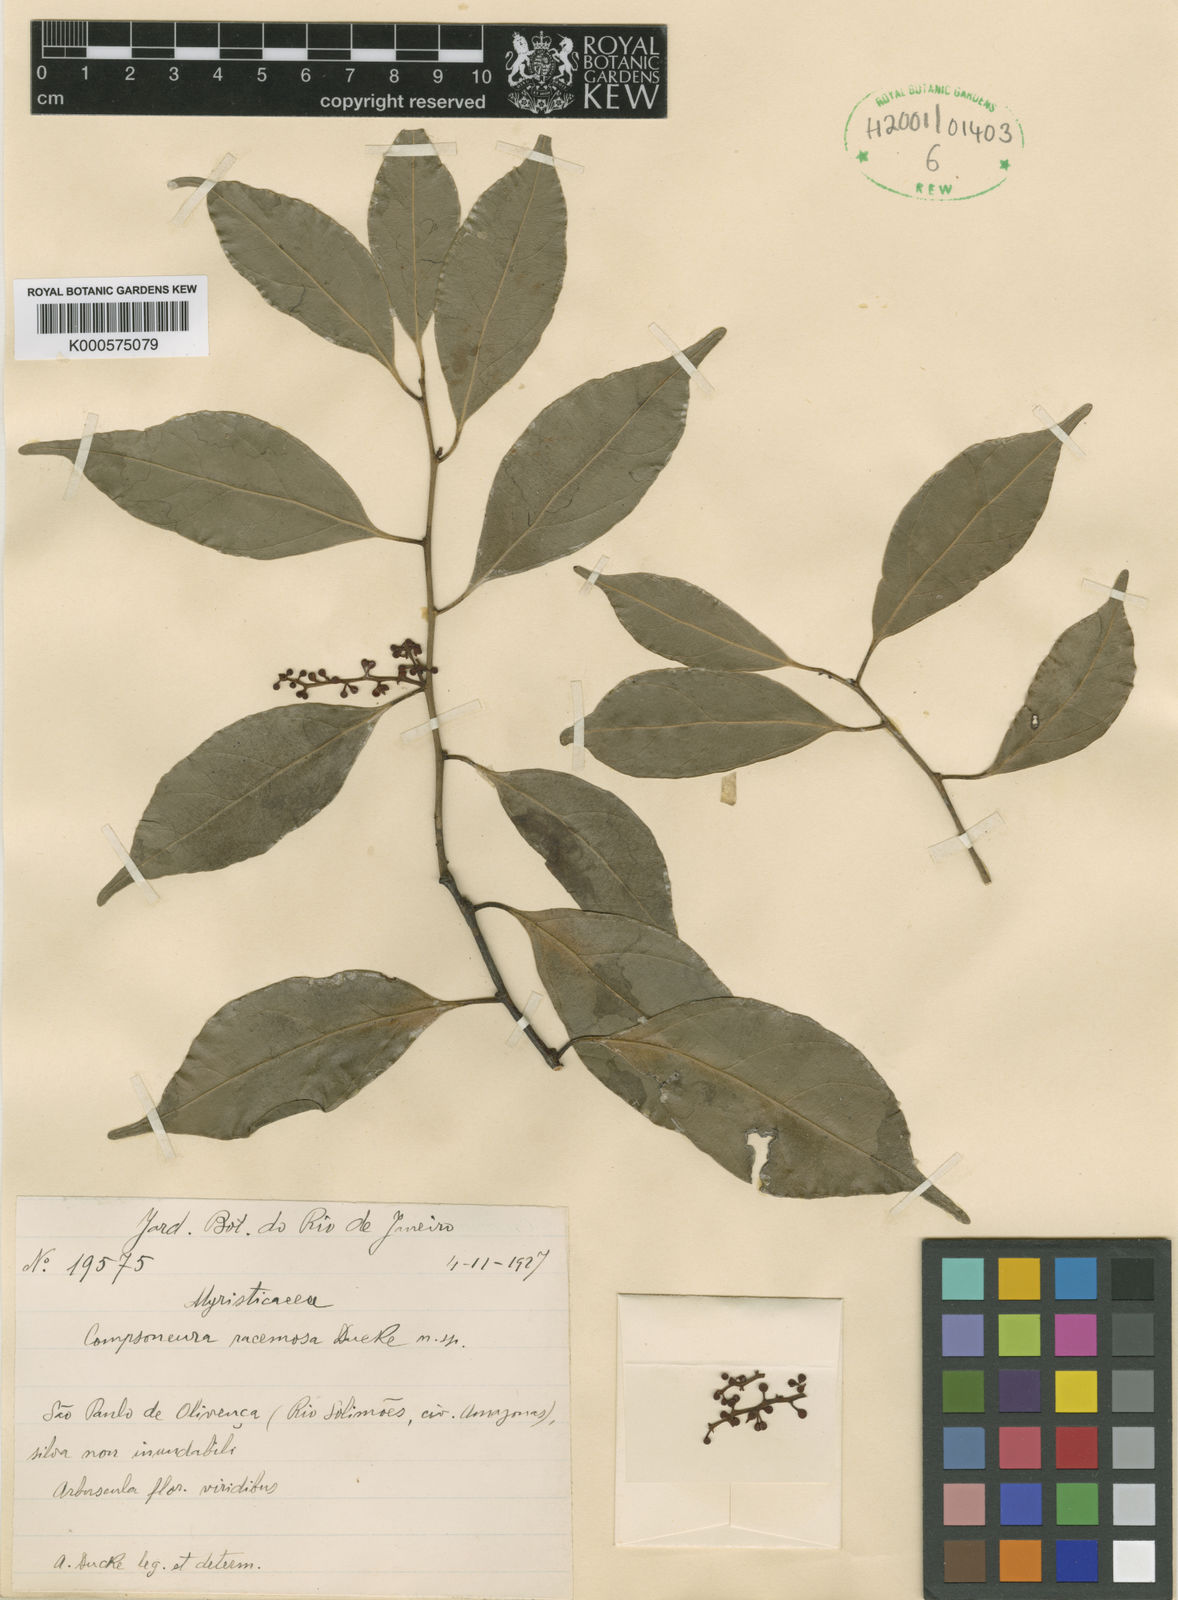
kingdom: Plantae
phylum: Tracheophyta
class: Magnoliopsida
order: Magnoliales
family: Myristicaceae
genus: Compsoneura
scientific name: Compsoneura racemosa
